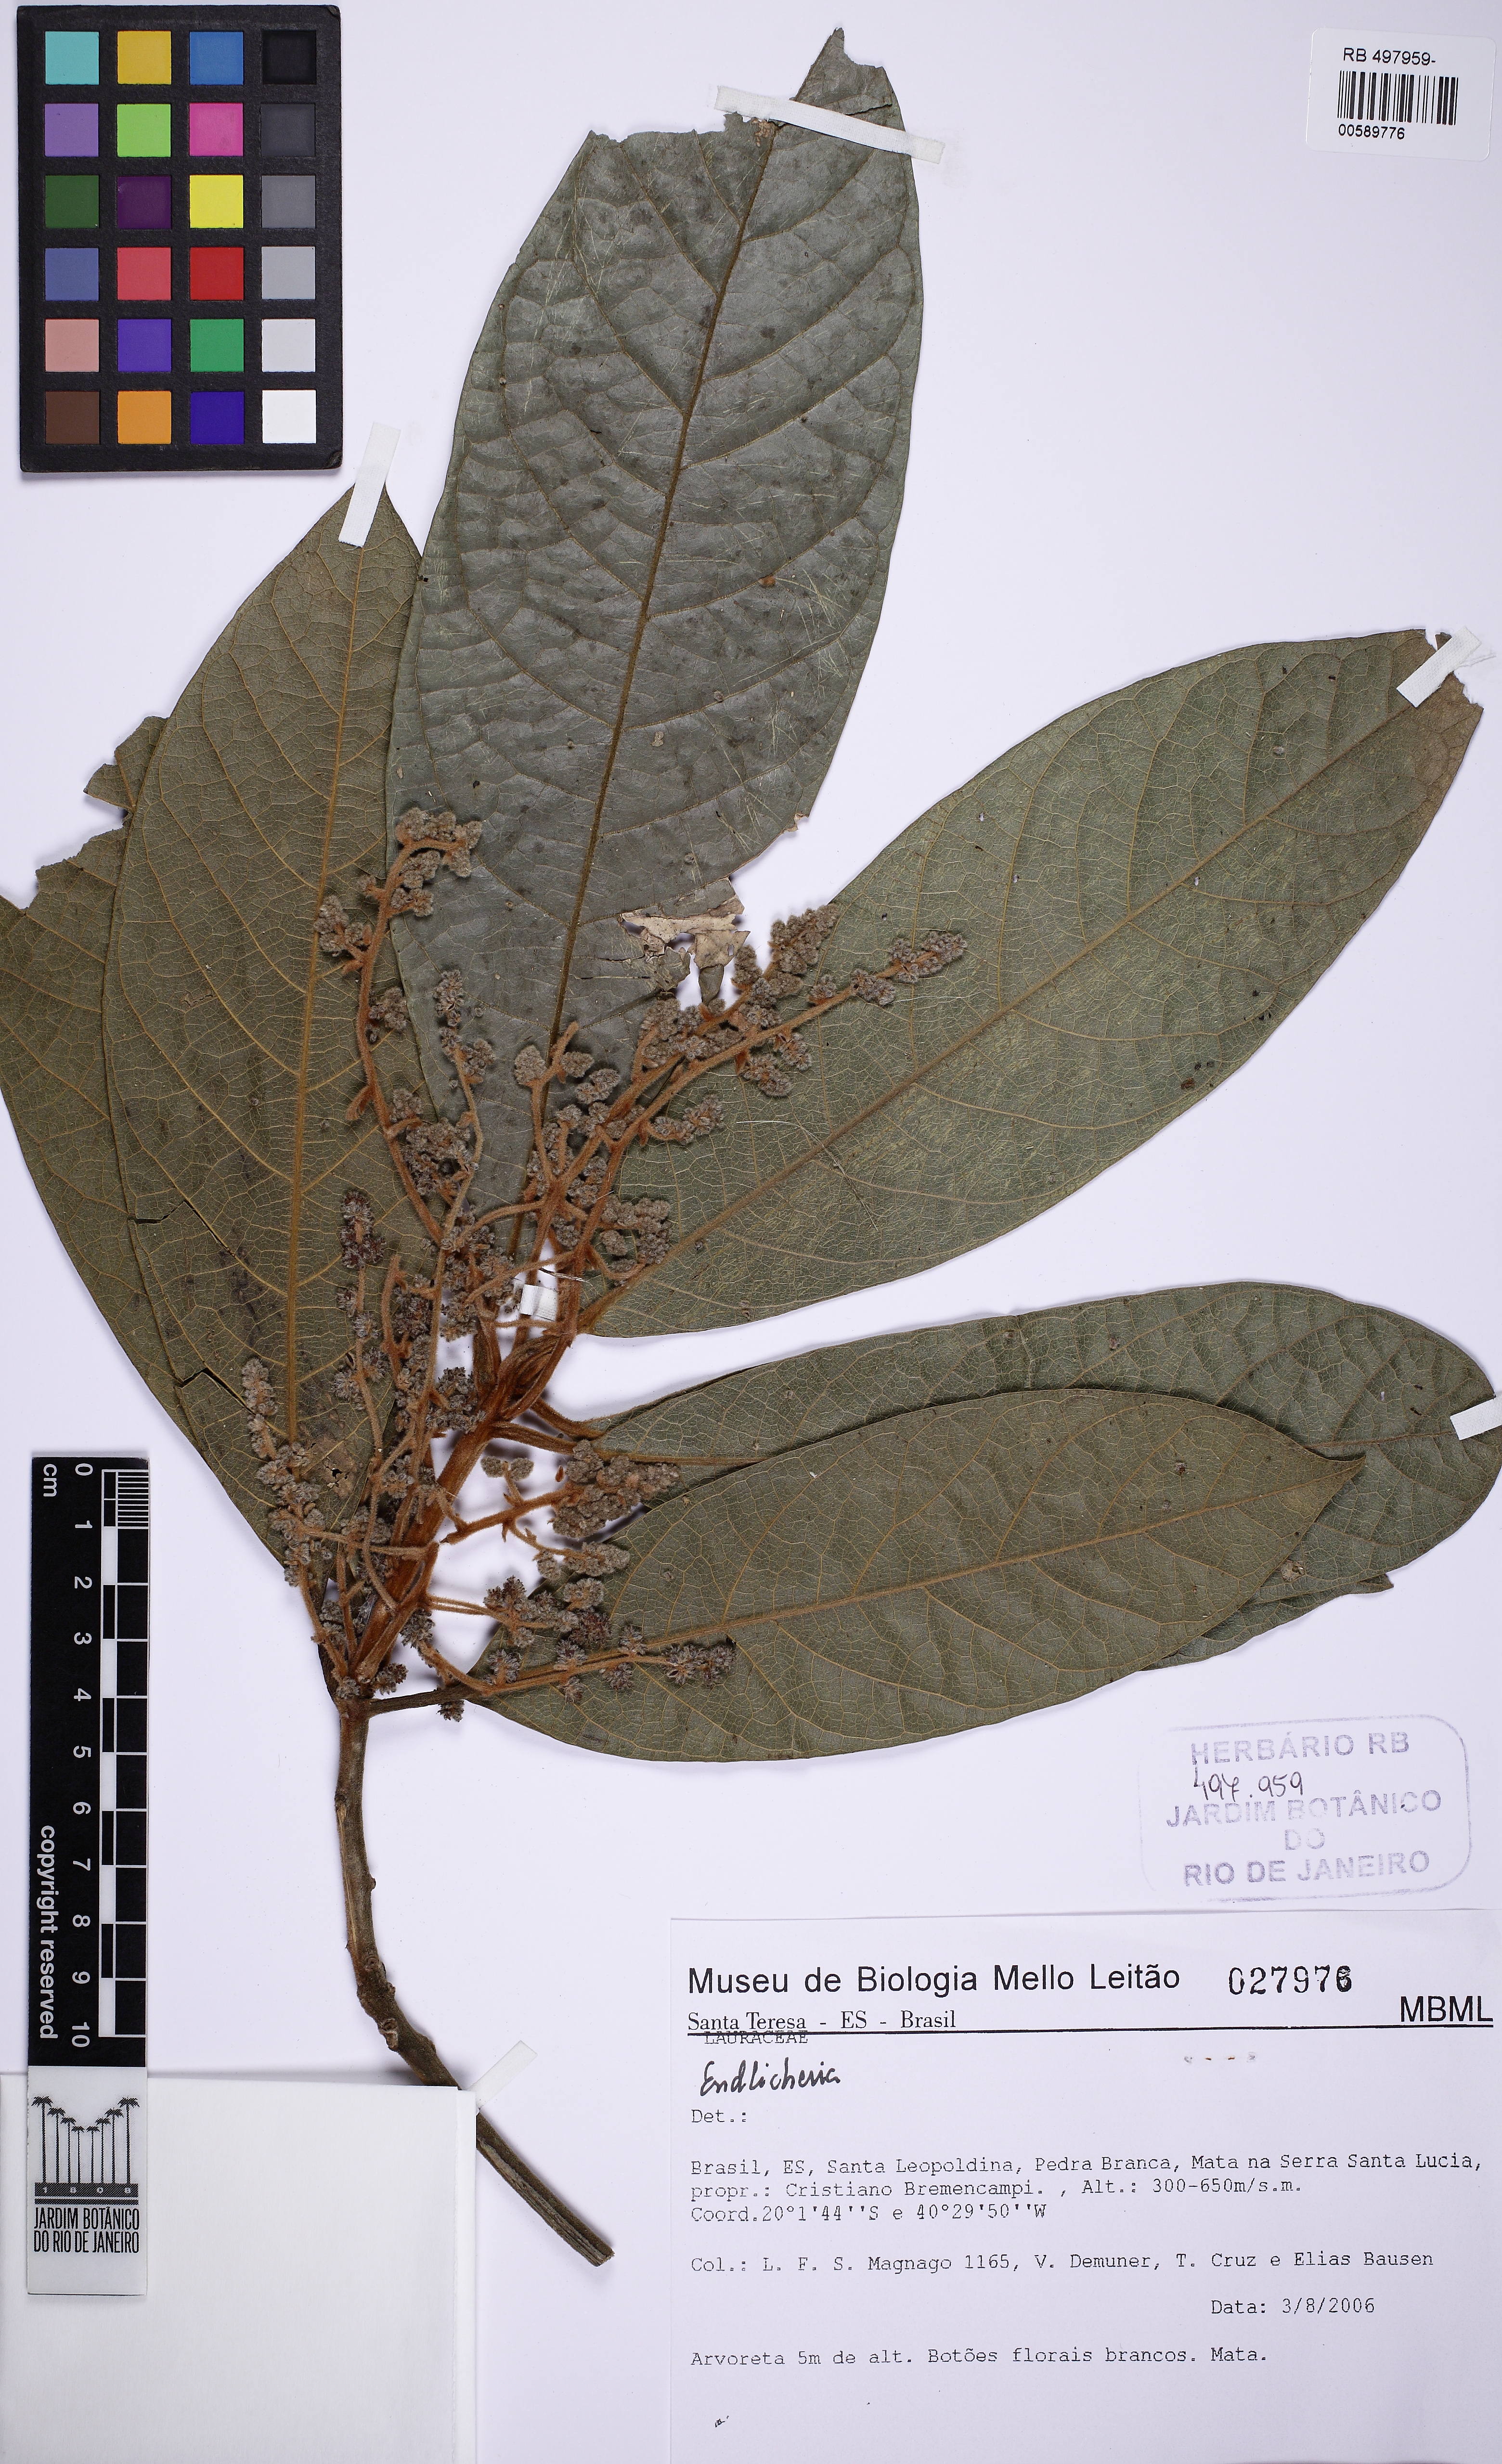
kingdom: Plantae
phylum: Tracheophyta
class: Magnoliopsida
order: Laurales
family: Lauraceae
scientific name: Lauraceae
